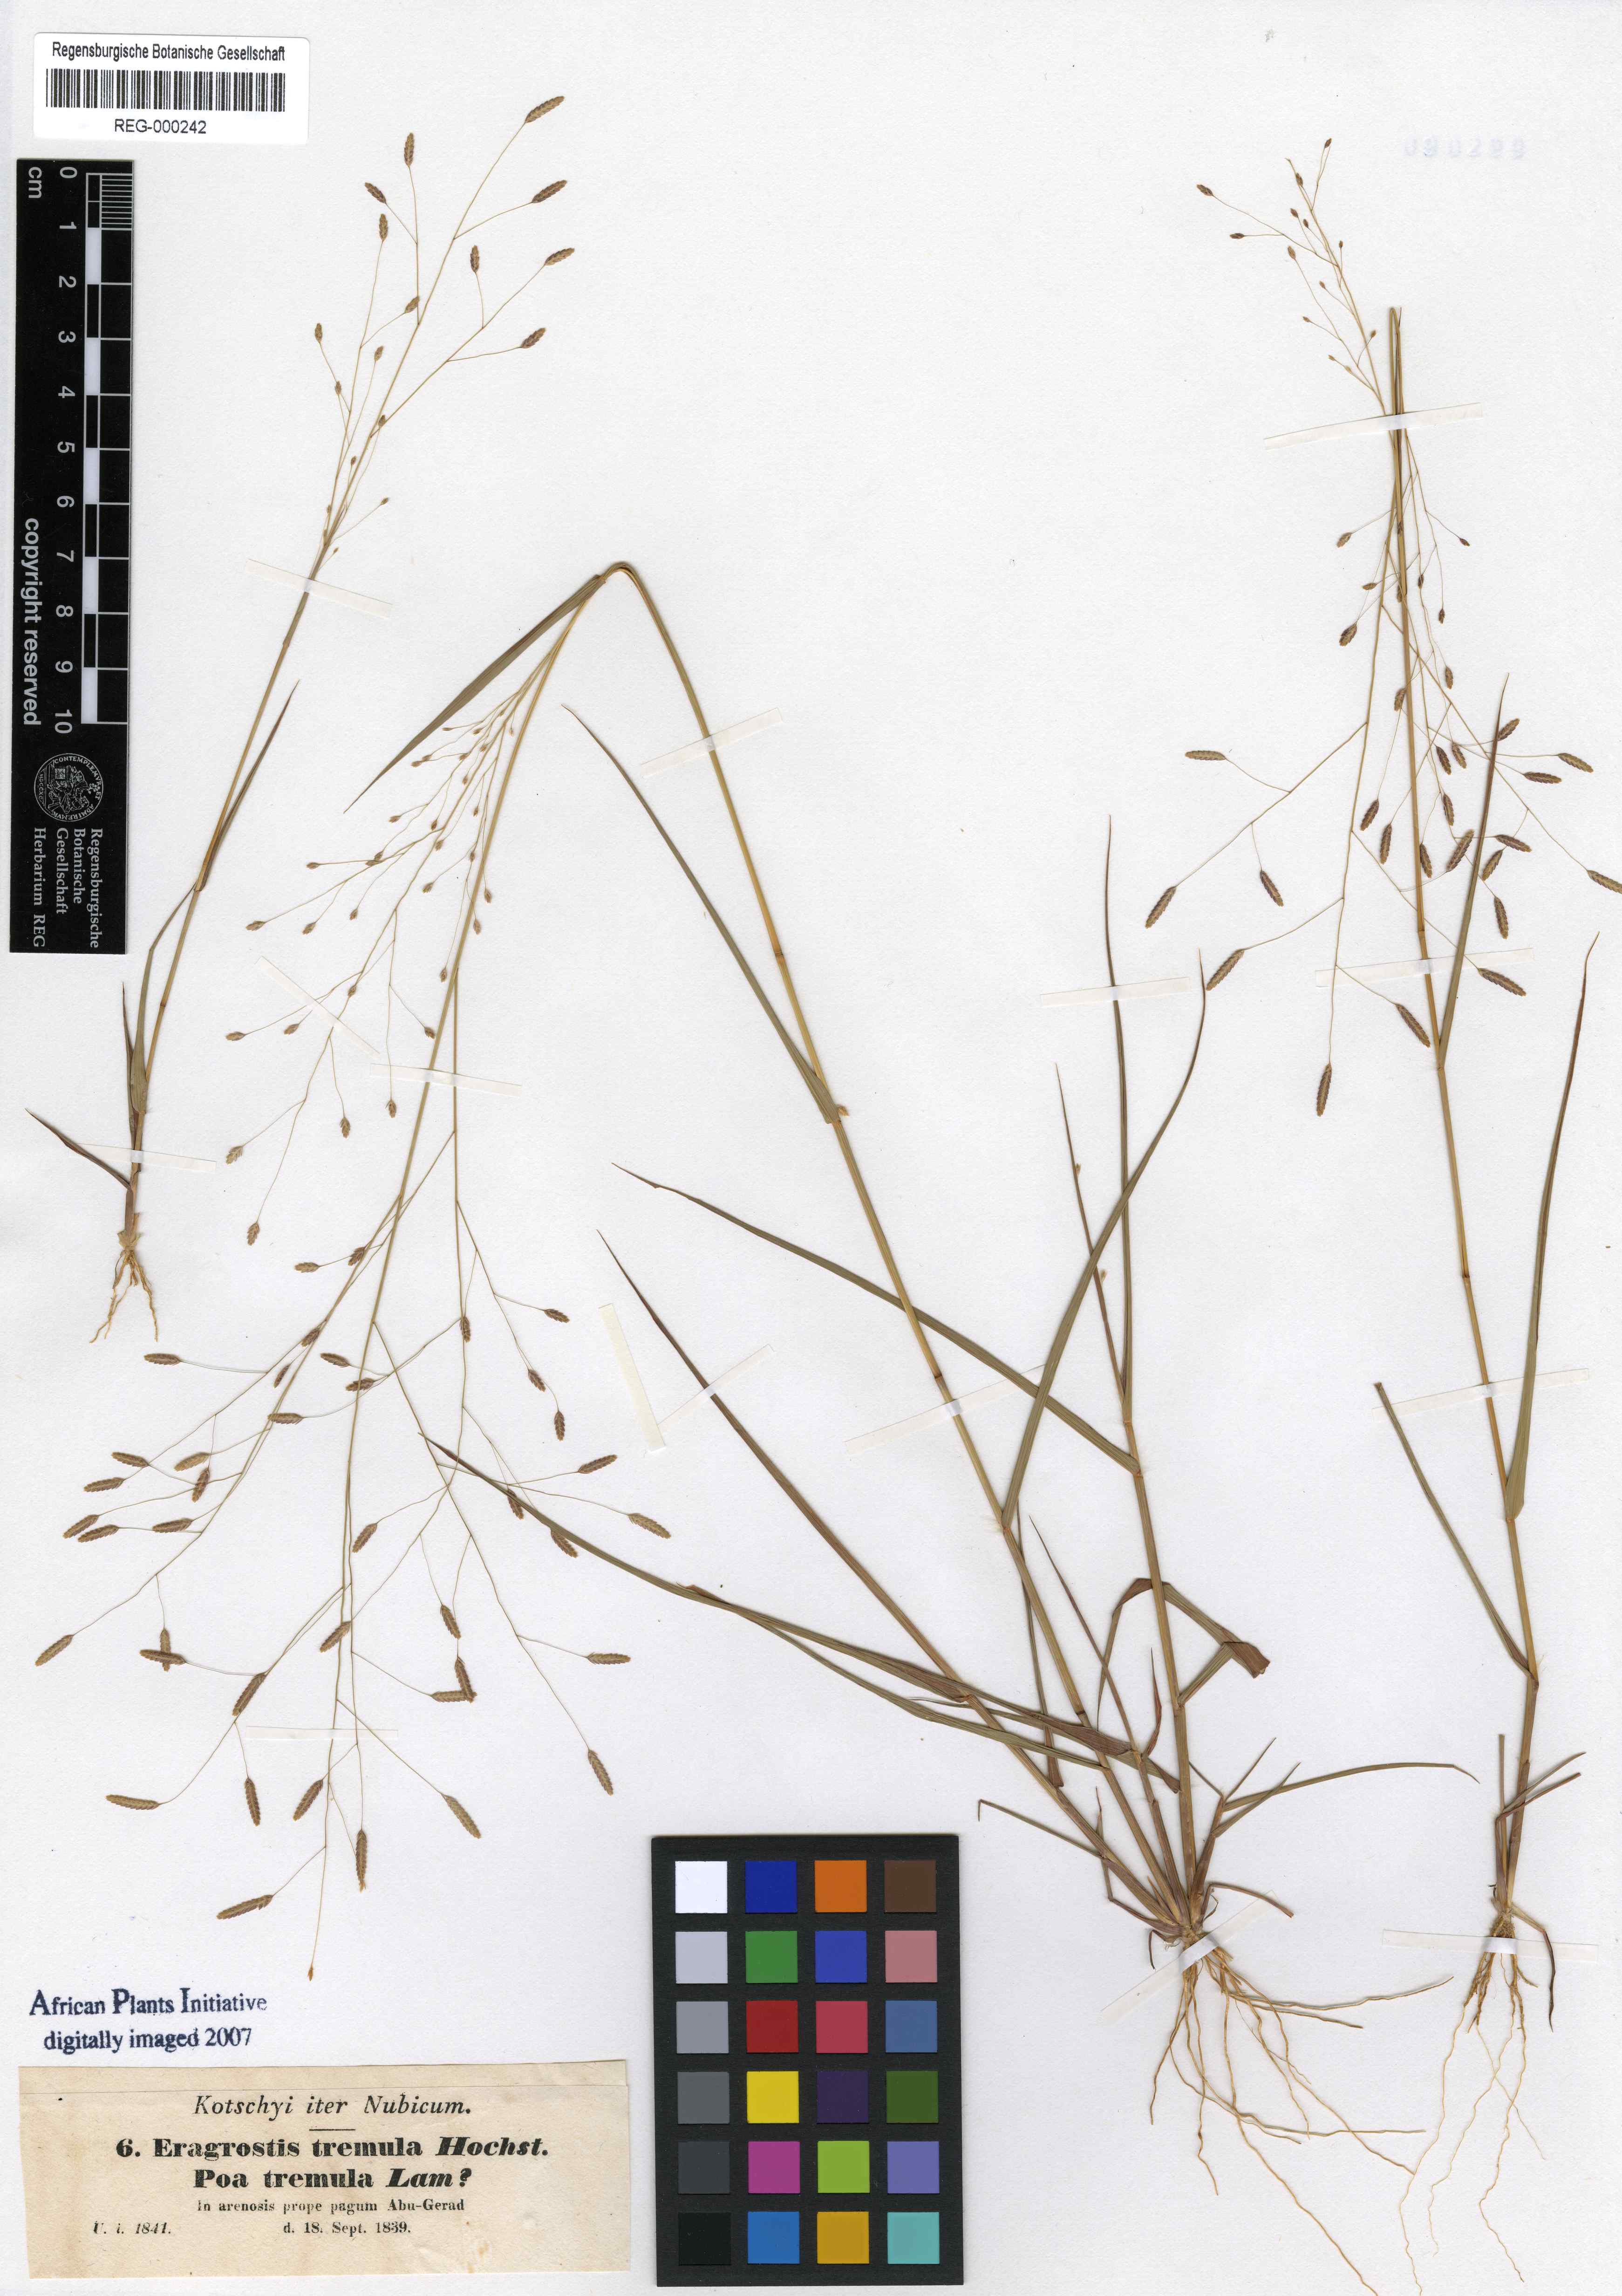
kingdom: Plantae
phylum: Tracheophyta
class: Liliopsida
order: Poales
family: Poaceae
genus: Eragrostis
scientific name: Eragrostis tremula
